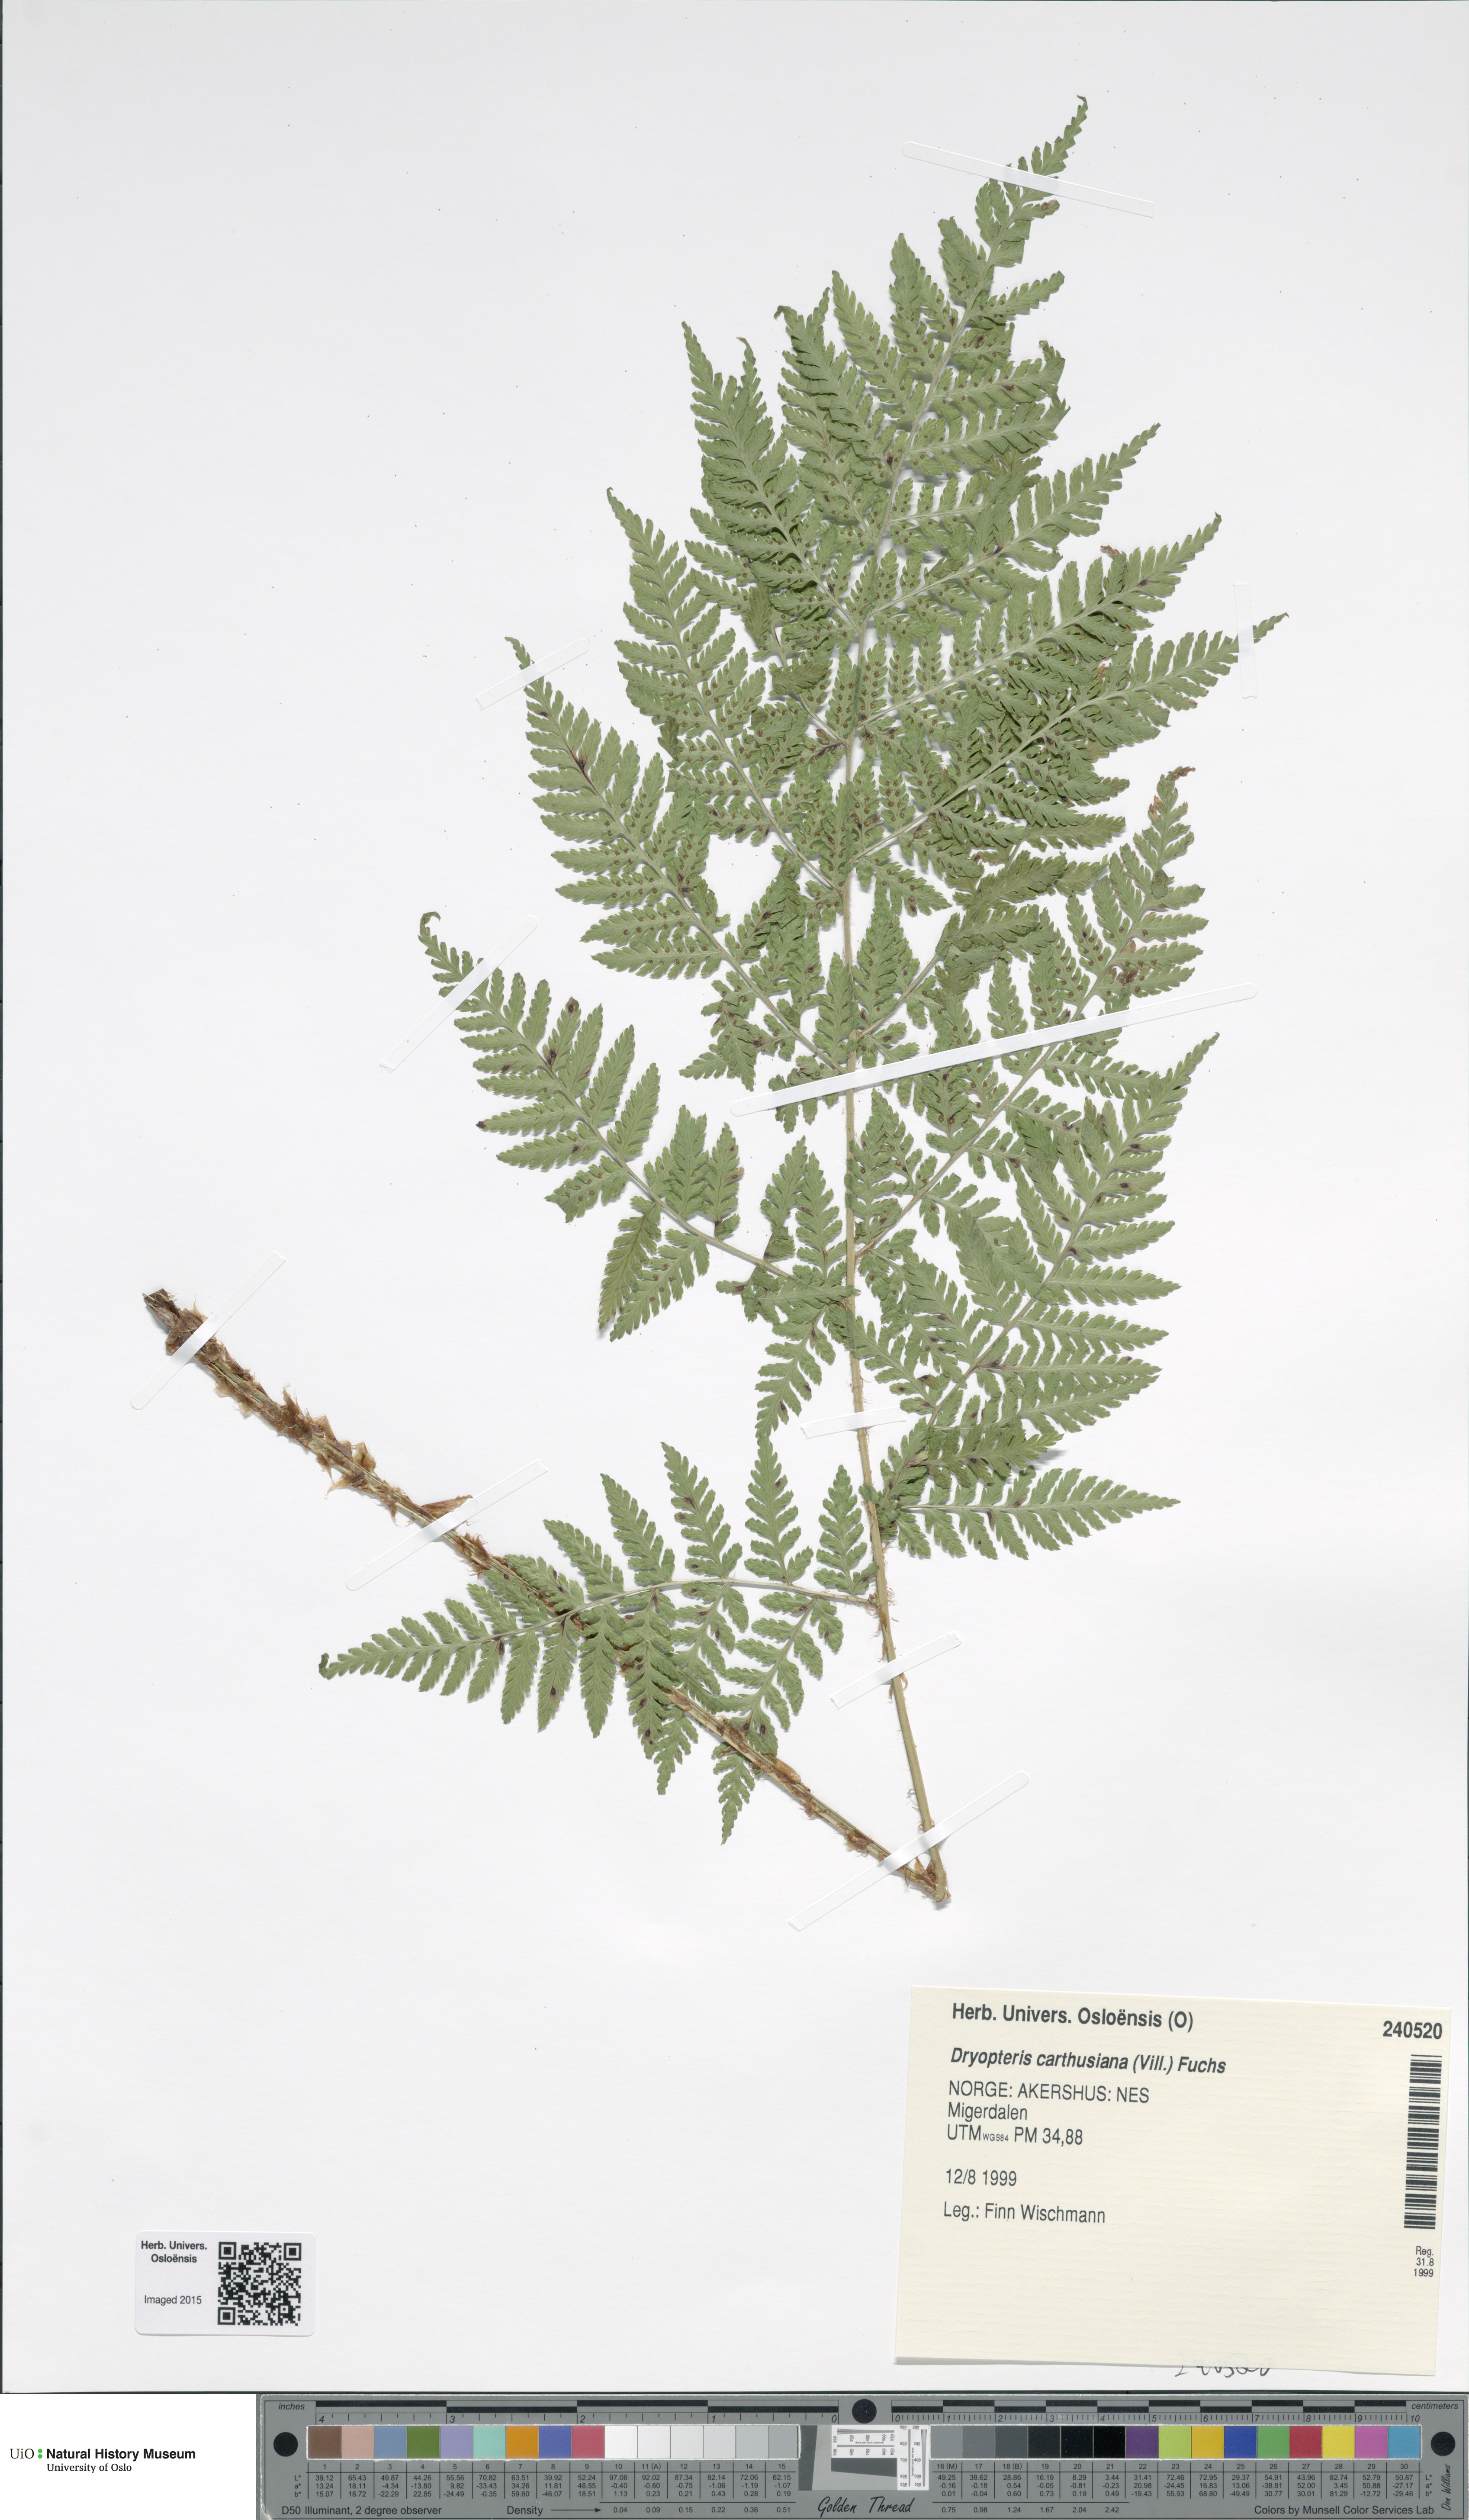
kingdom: Plantae
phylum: Tracheophyta
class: Polypodiopsida
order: Polypodiales
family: Dryopteridaceae
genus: Dryopteris
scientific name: Dryopteris carthusiana
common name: Narrow buckler-fern
